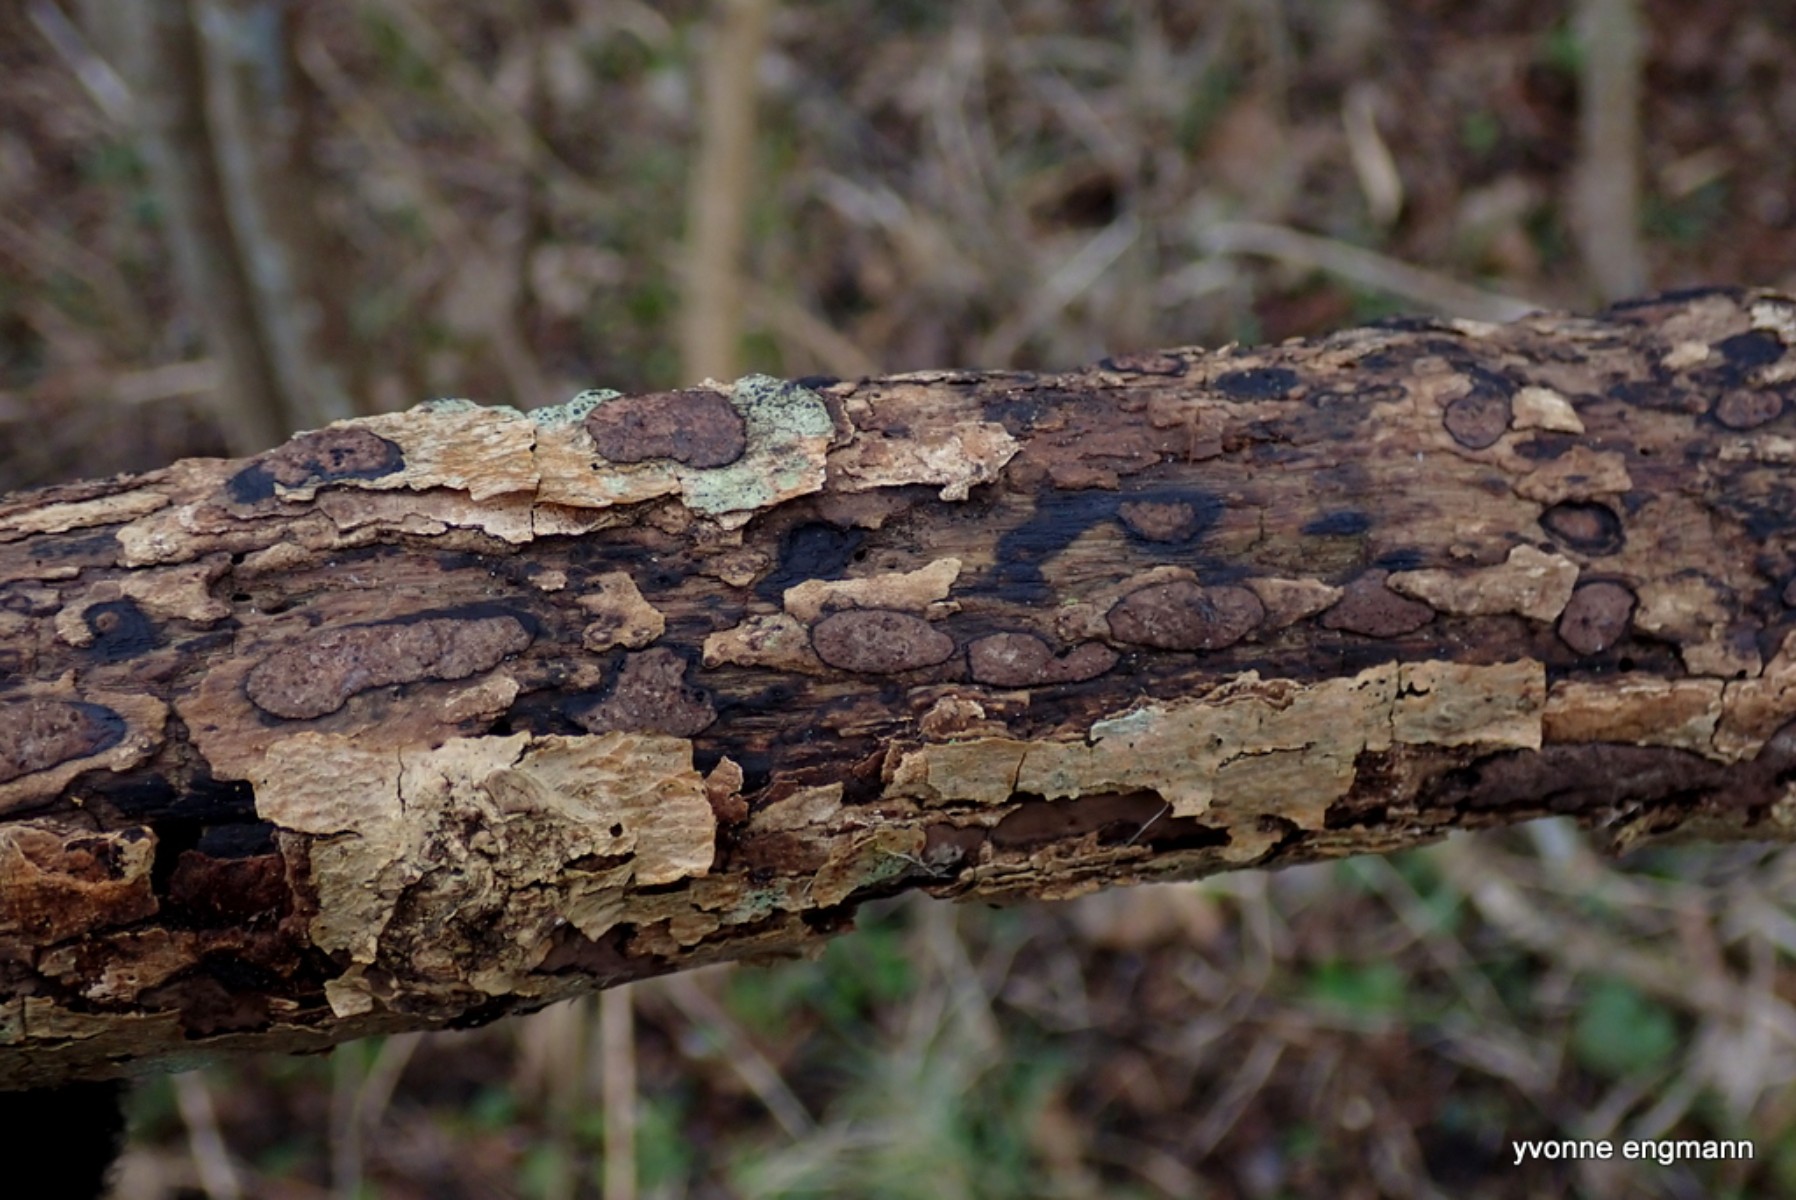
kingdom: Fungi
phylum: Ascomycota
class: Sordariomycetes
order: Xylariales
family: Hypoxylaceae
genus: Hypoxylon
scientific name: Hypoxylon petriniae
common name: nedsænket kulbær
